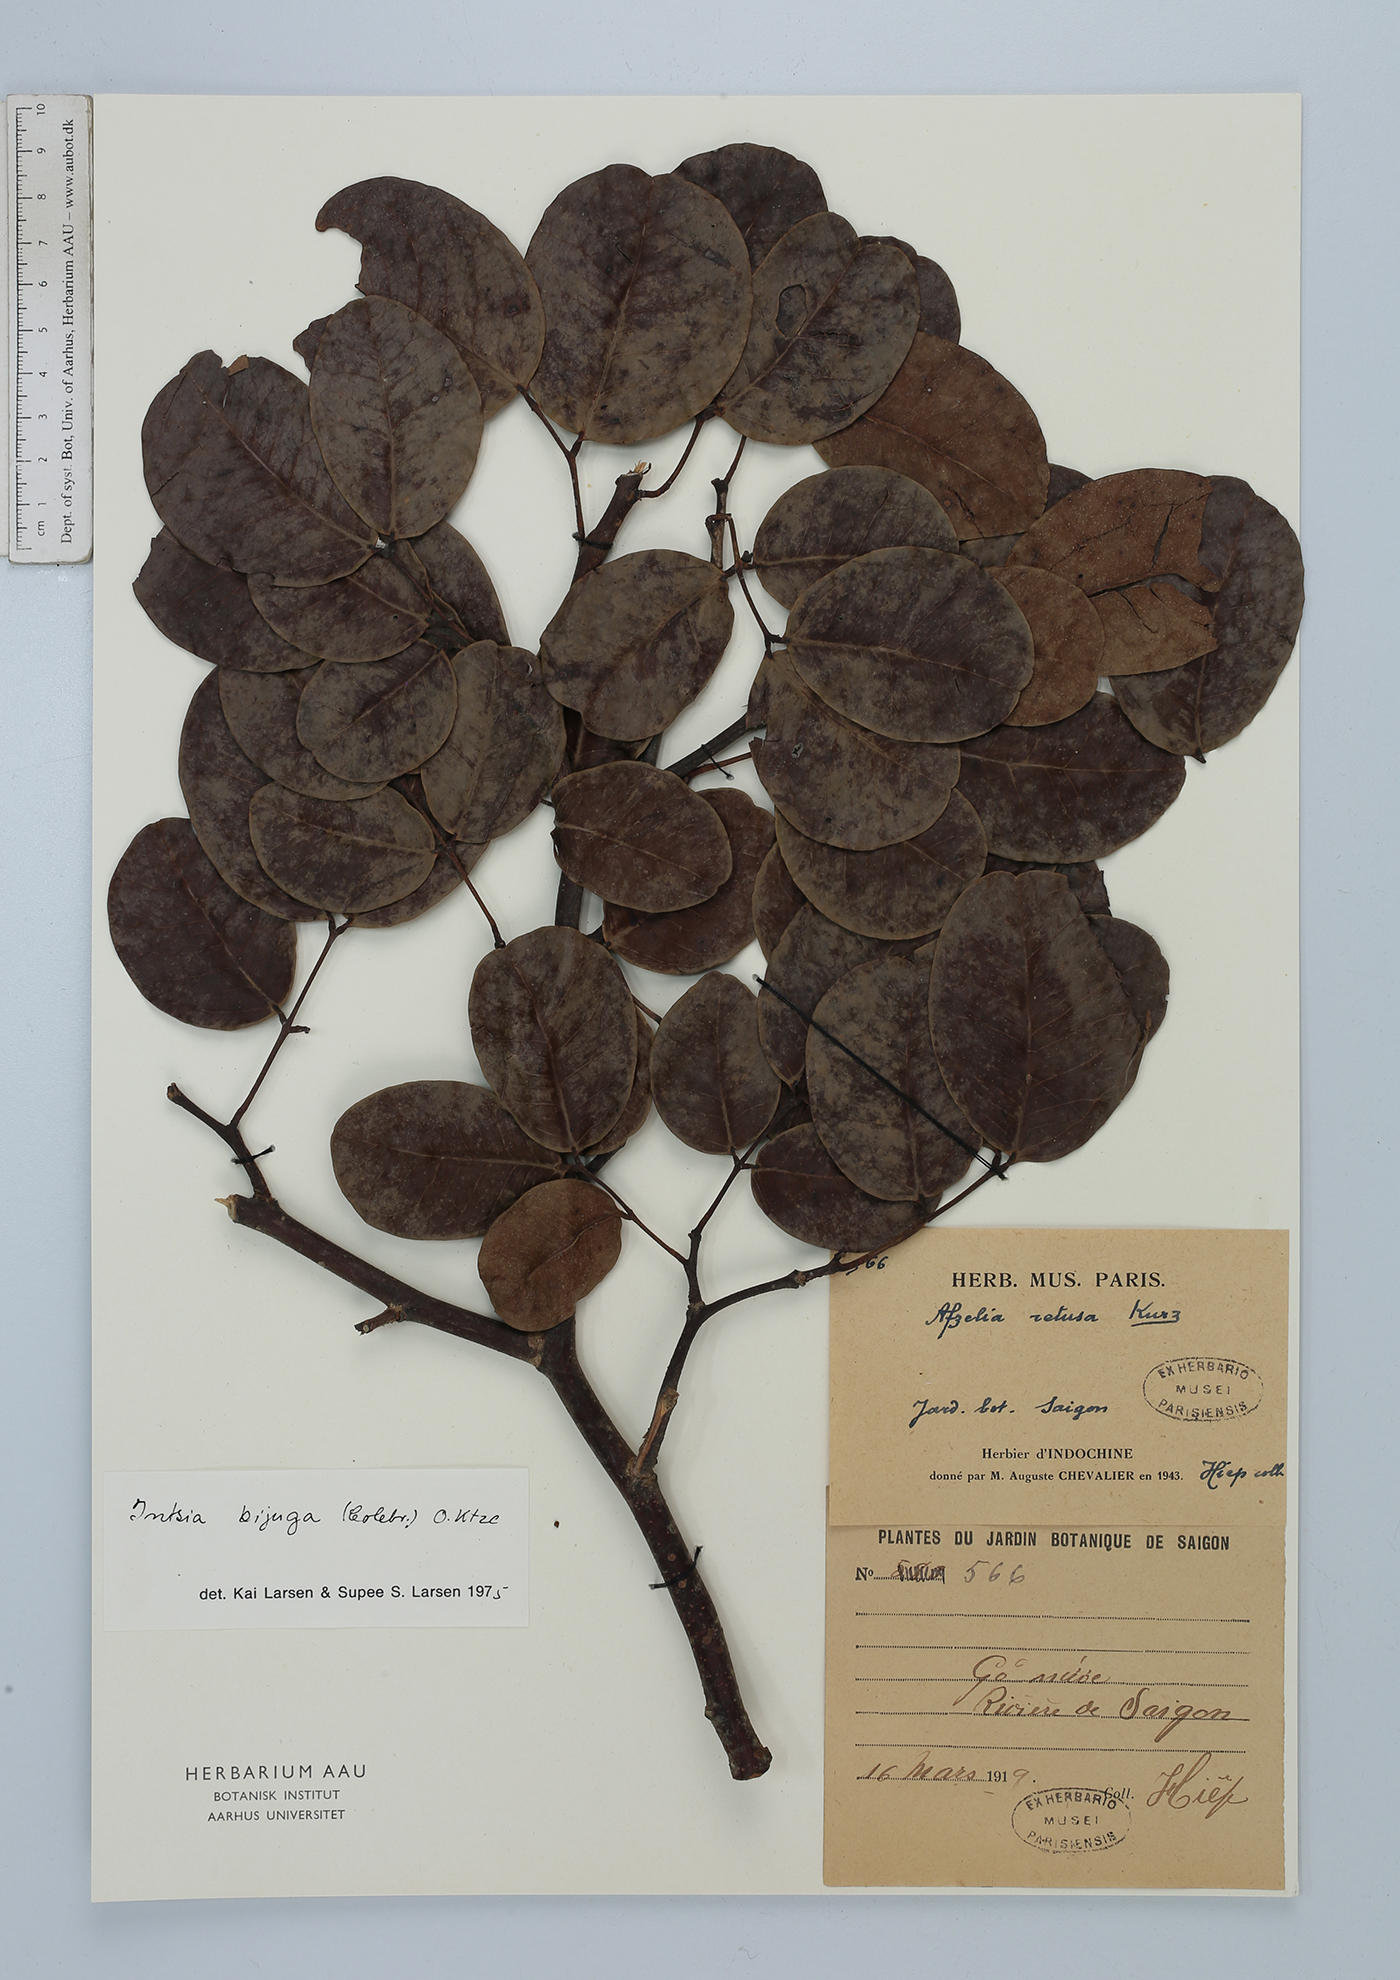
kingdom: Plantae
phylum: Tracheophyta
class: Magnoliopsida
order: Fabales
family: Fabaceae
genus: Intsia
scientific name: Intsia bijuga
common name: Moluccan ironwood
